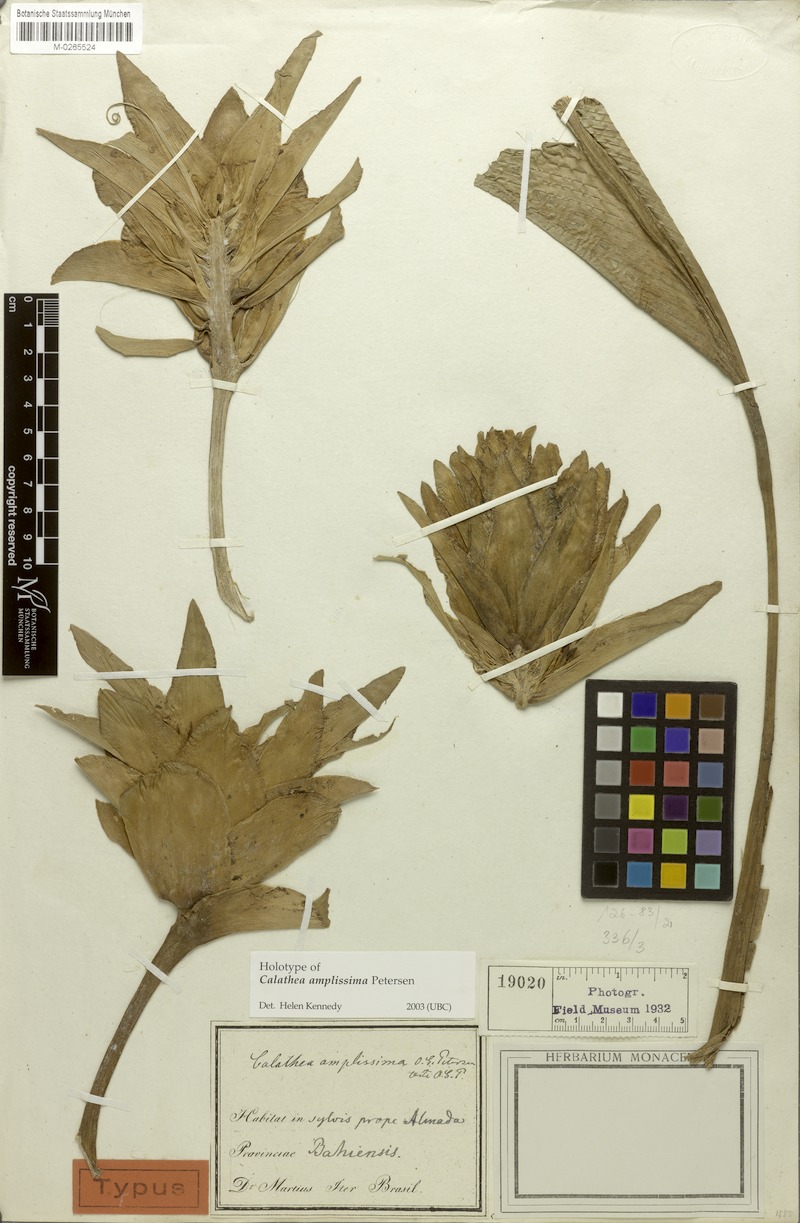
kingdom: Plantae
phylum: Tracheophyta
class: Liliopsida
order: Zingiberales
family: Marantaceae
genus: Goeppertia
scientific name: Goeppertia ovata
